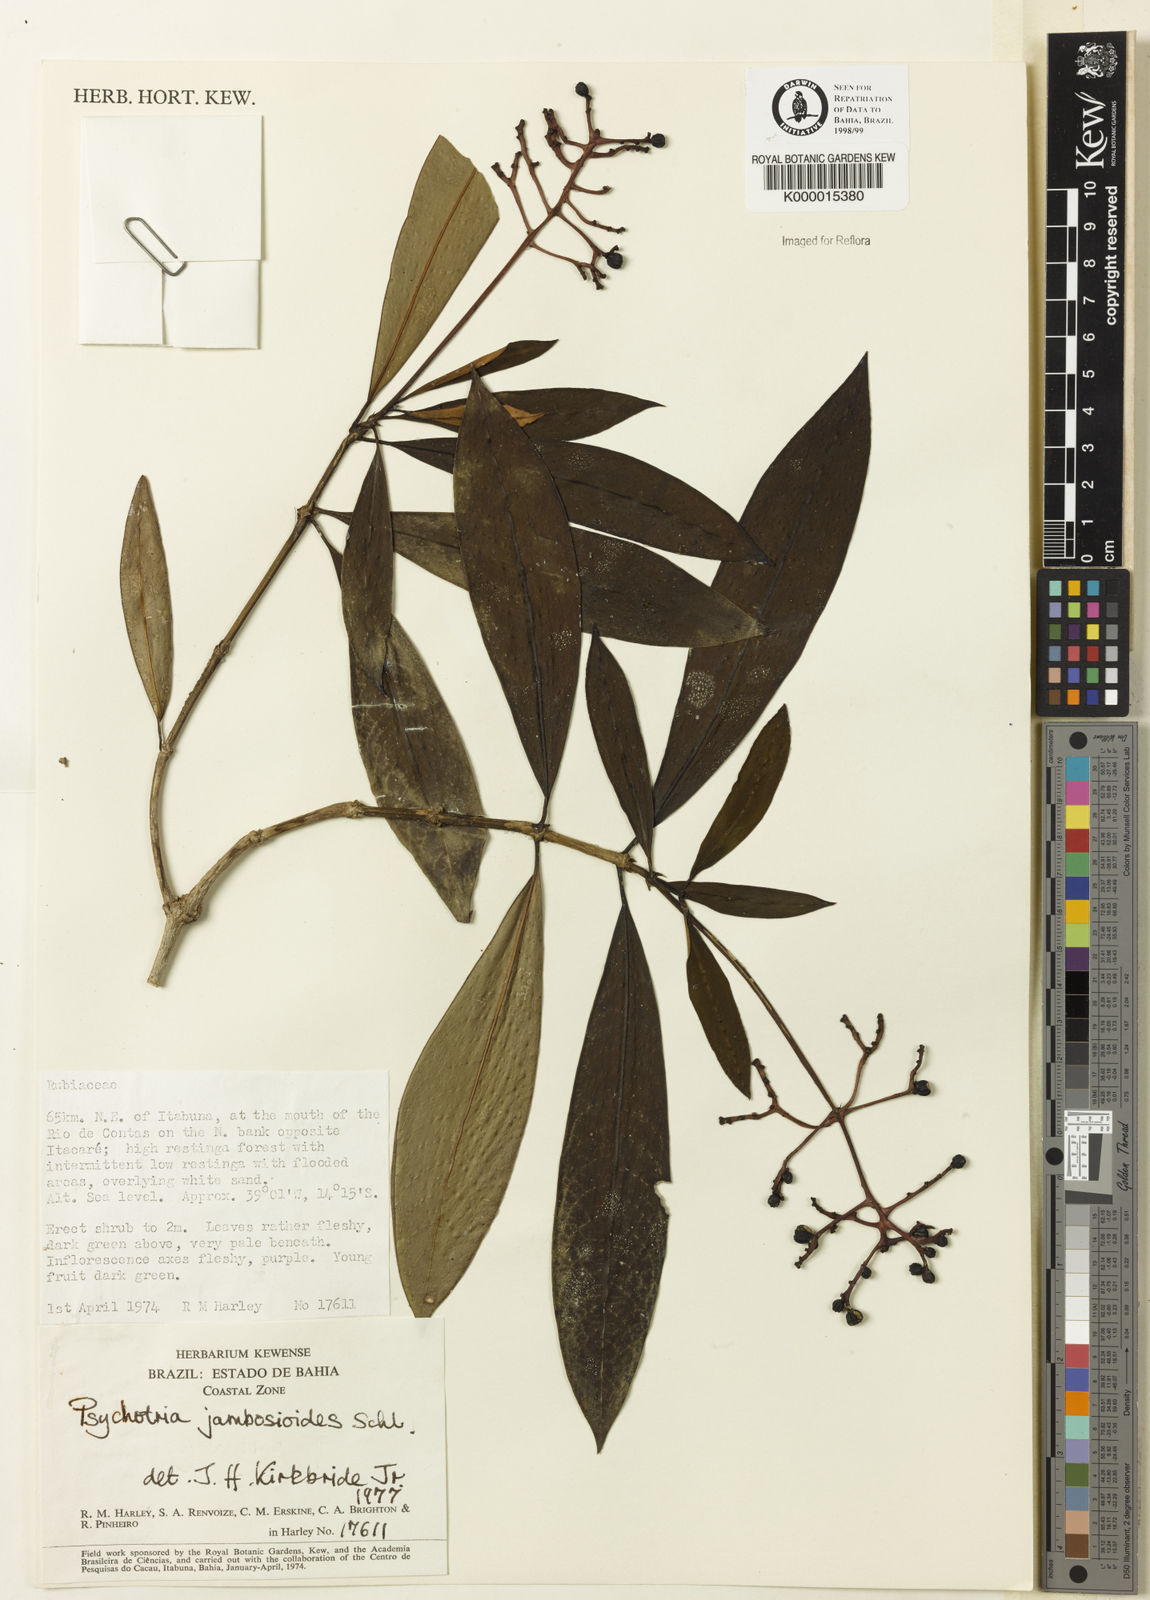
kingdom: Plantae
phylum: Tracheophyta
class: Magnoliopsida
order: Gentianales
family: Rubiaceae
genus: Palicourea
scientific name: Palicourea jambosioides
